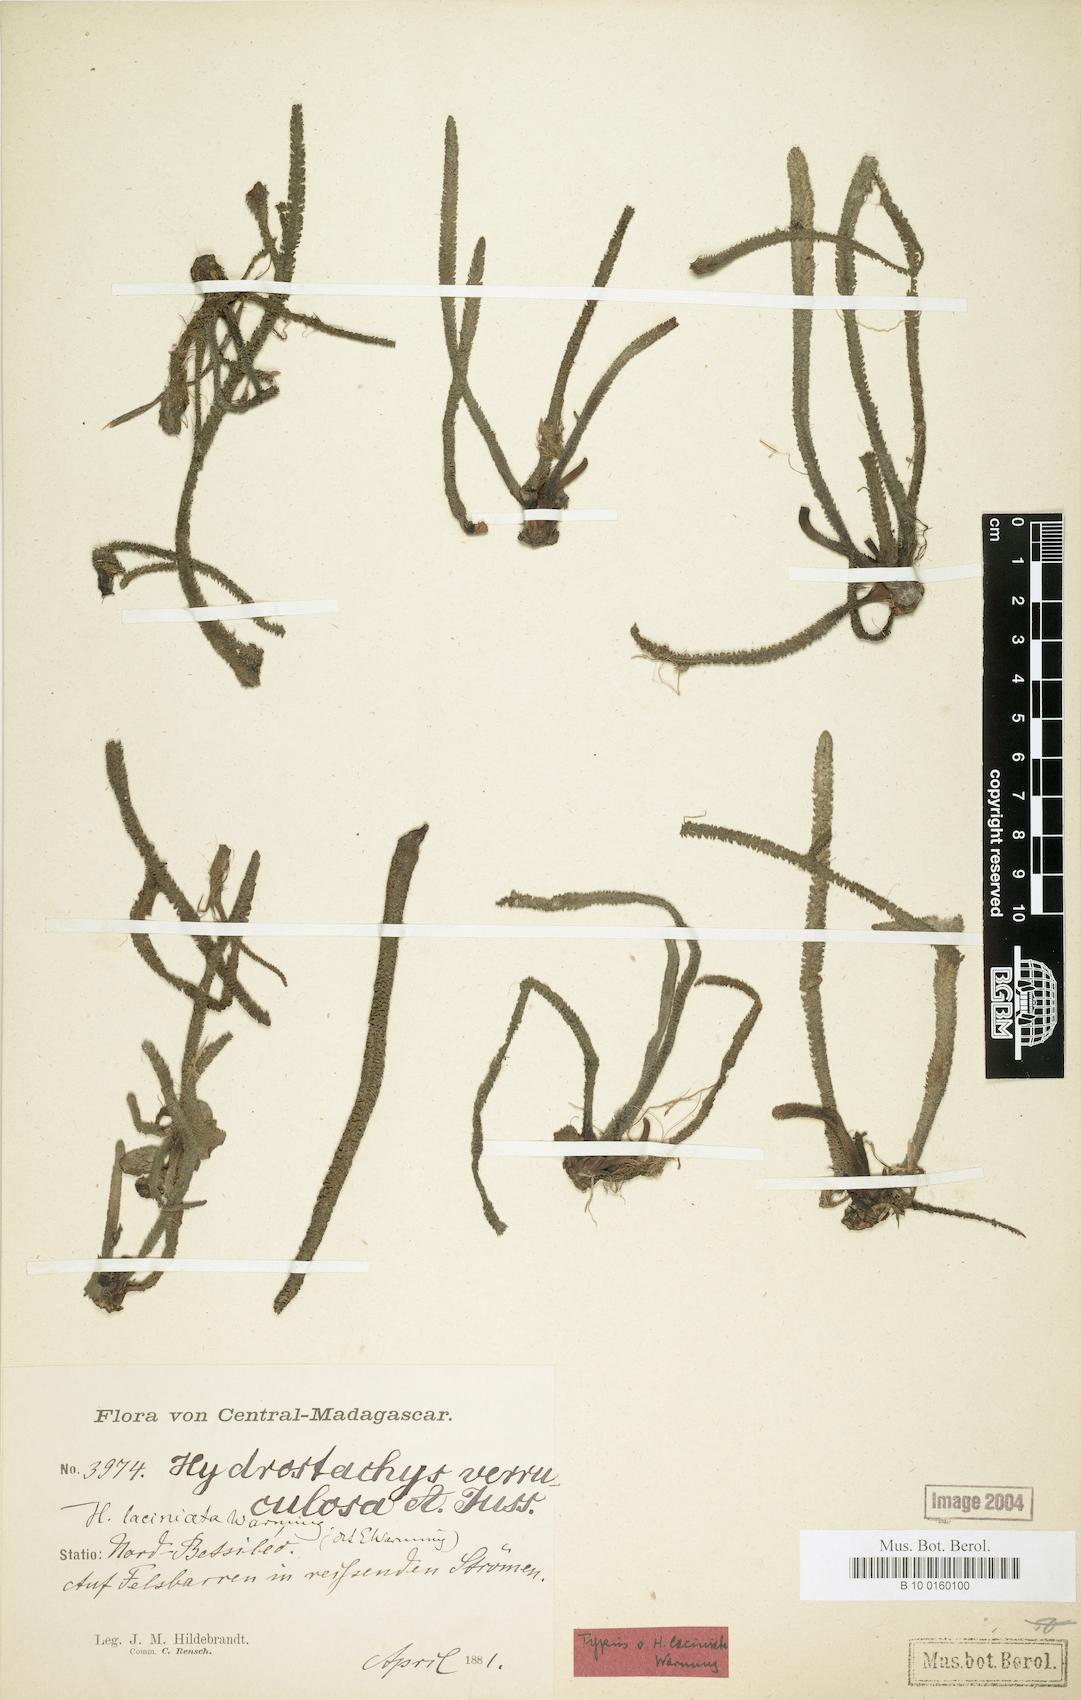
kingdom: Plantae
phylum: Tracheophyta
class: Magnoliopsida
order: Cornales
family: Hydrostachyaceae
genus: Hydrostachys
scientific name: Hydrostachys verruculosa
